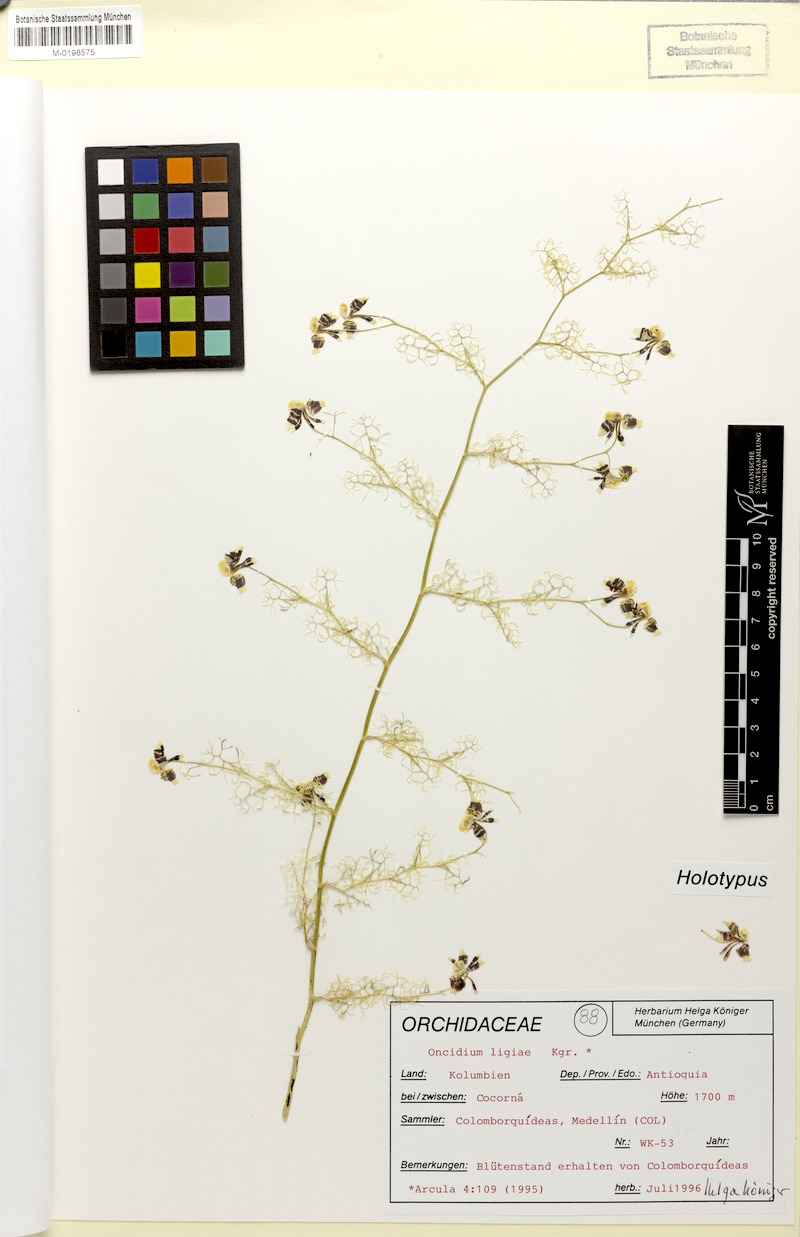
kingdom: Plantae
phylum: Tracheophyta
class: Liliopsida
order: Asparagales
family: Orchidaceae
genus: Oncidium
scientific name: Oncidium ligiae
